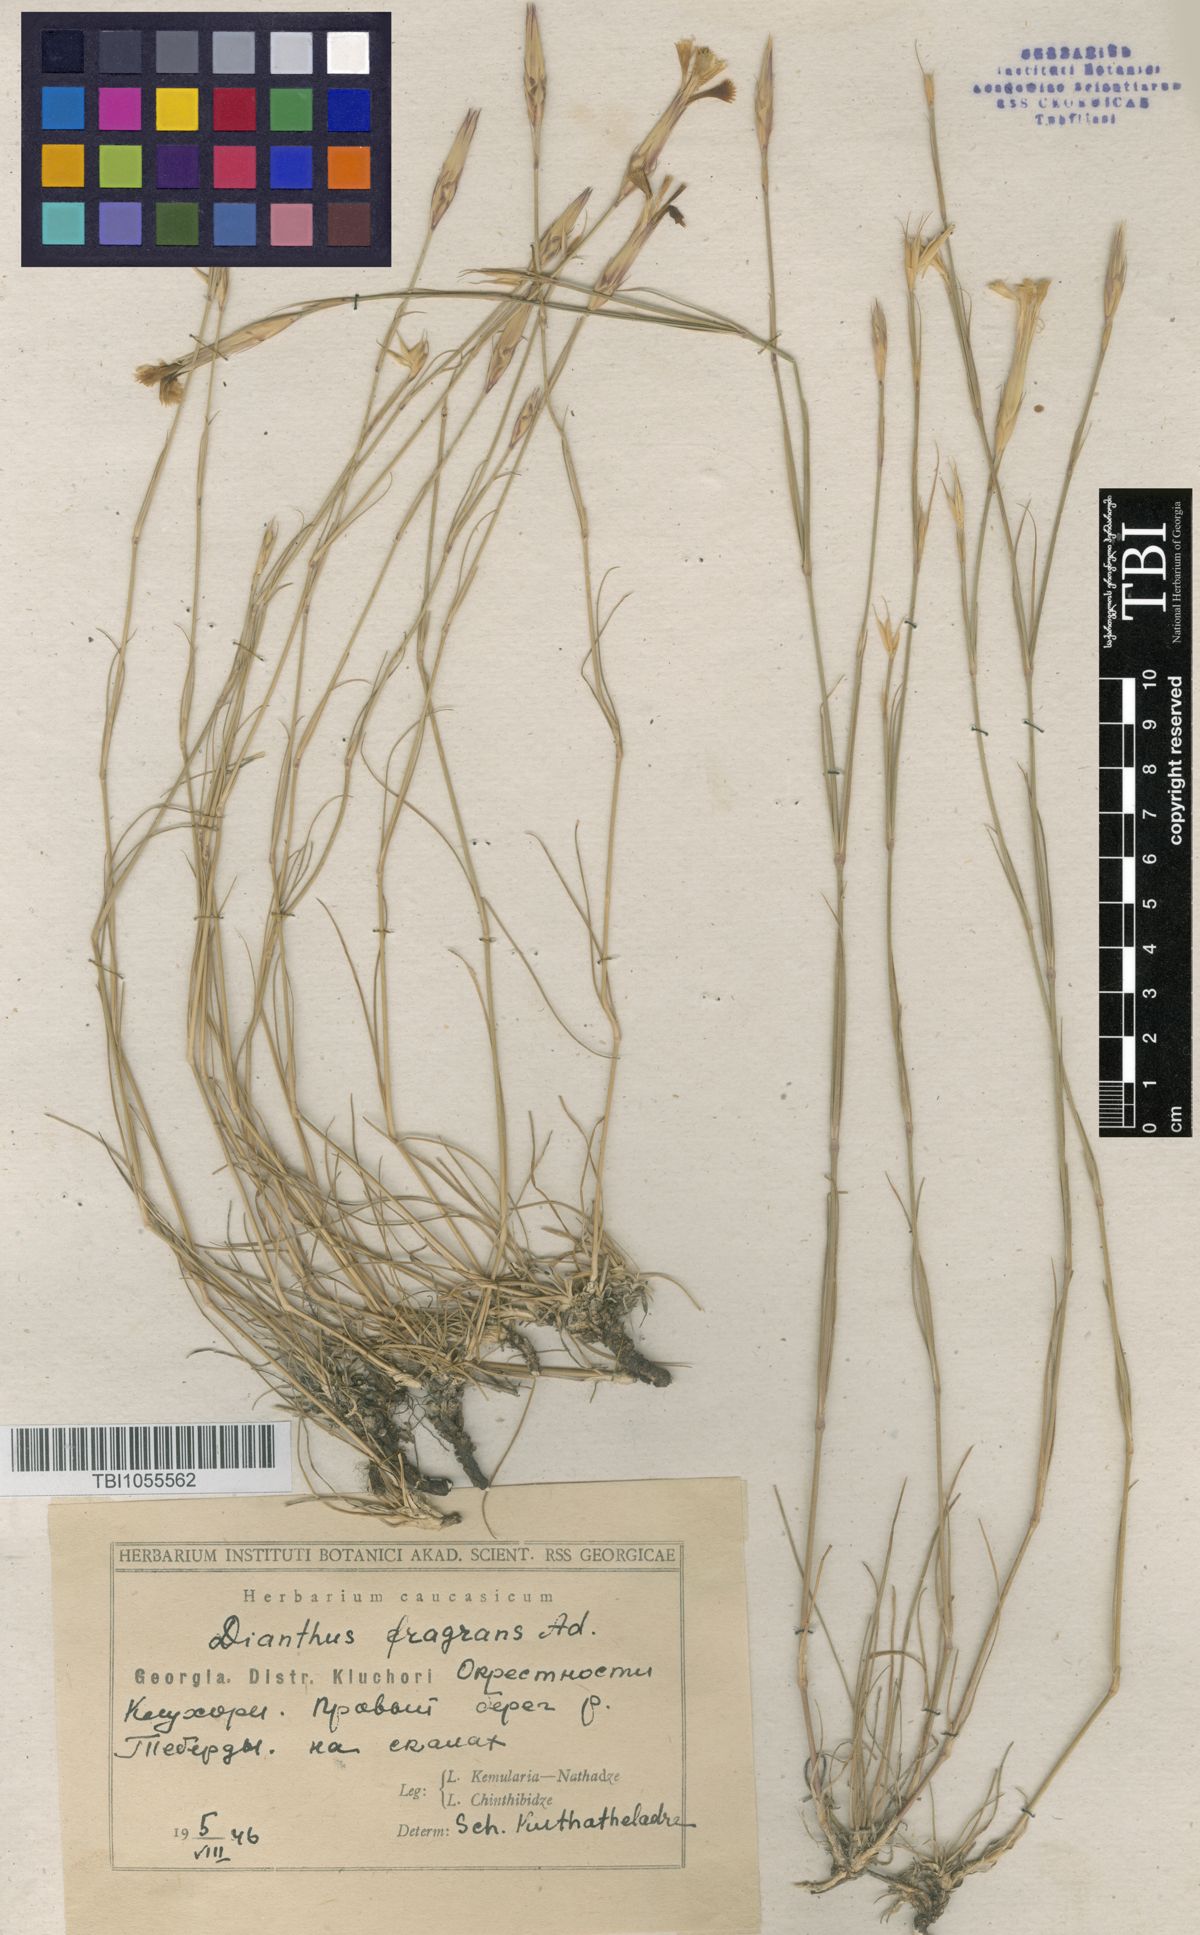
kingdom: Plantae
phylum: Tracheophyta
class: Magnoliopsida
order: Caryophyllales
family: Caryophyllaceae
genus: Dianthus
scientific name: Dianthus
